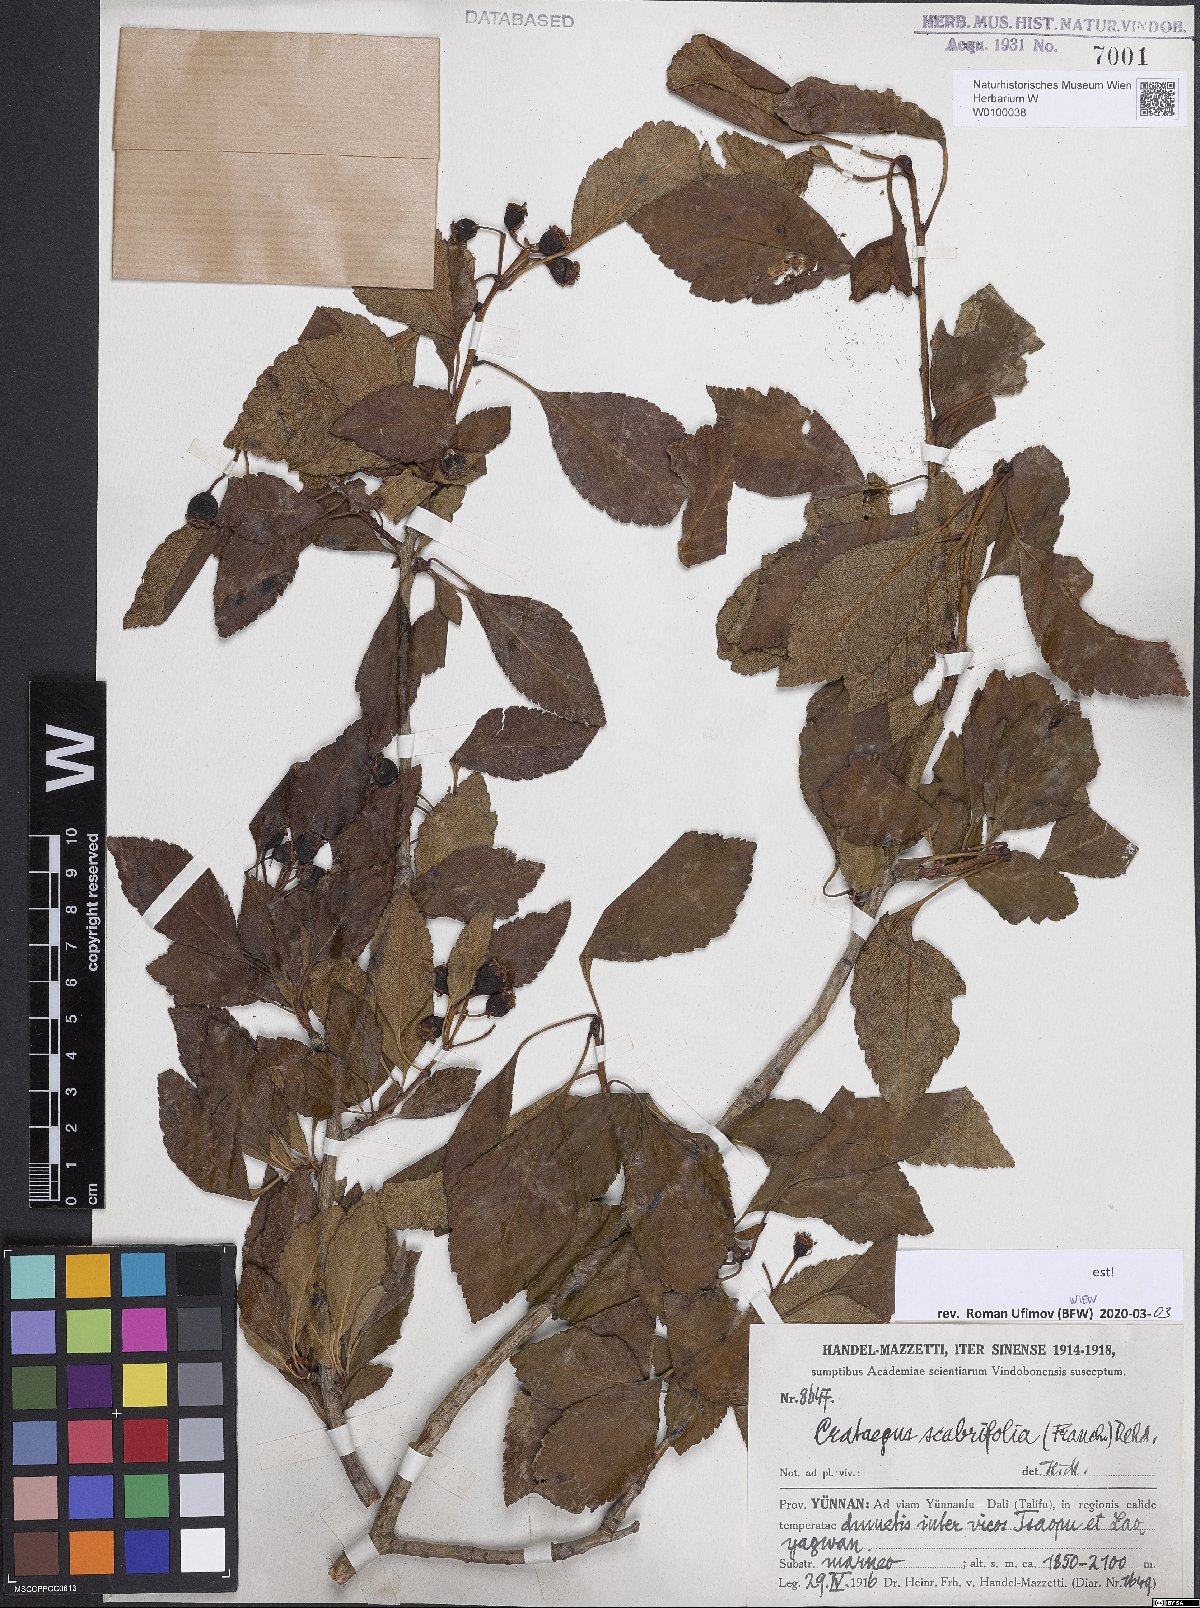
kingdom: Plantae
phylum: Tracheophyta
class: Magnoliopsida
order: Rosales
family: Rosaceae
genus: Crataegus
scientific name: Crataegus scabrifolia
